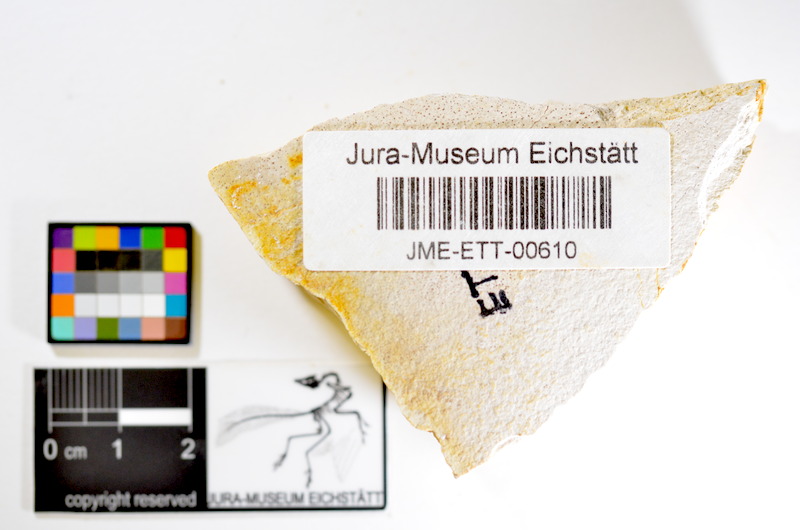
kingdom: Animalia
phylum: Chordata
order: Salmoniformes
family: Orthogonikleithridae
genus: Orthogonikleithrus
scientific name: Orthogonikleithrus hoelli
